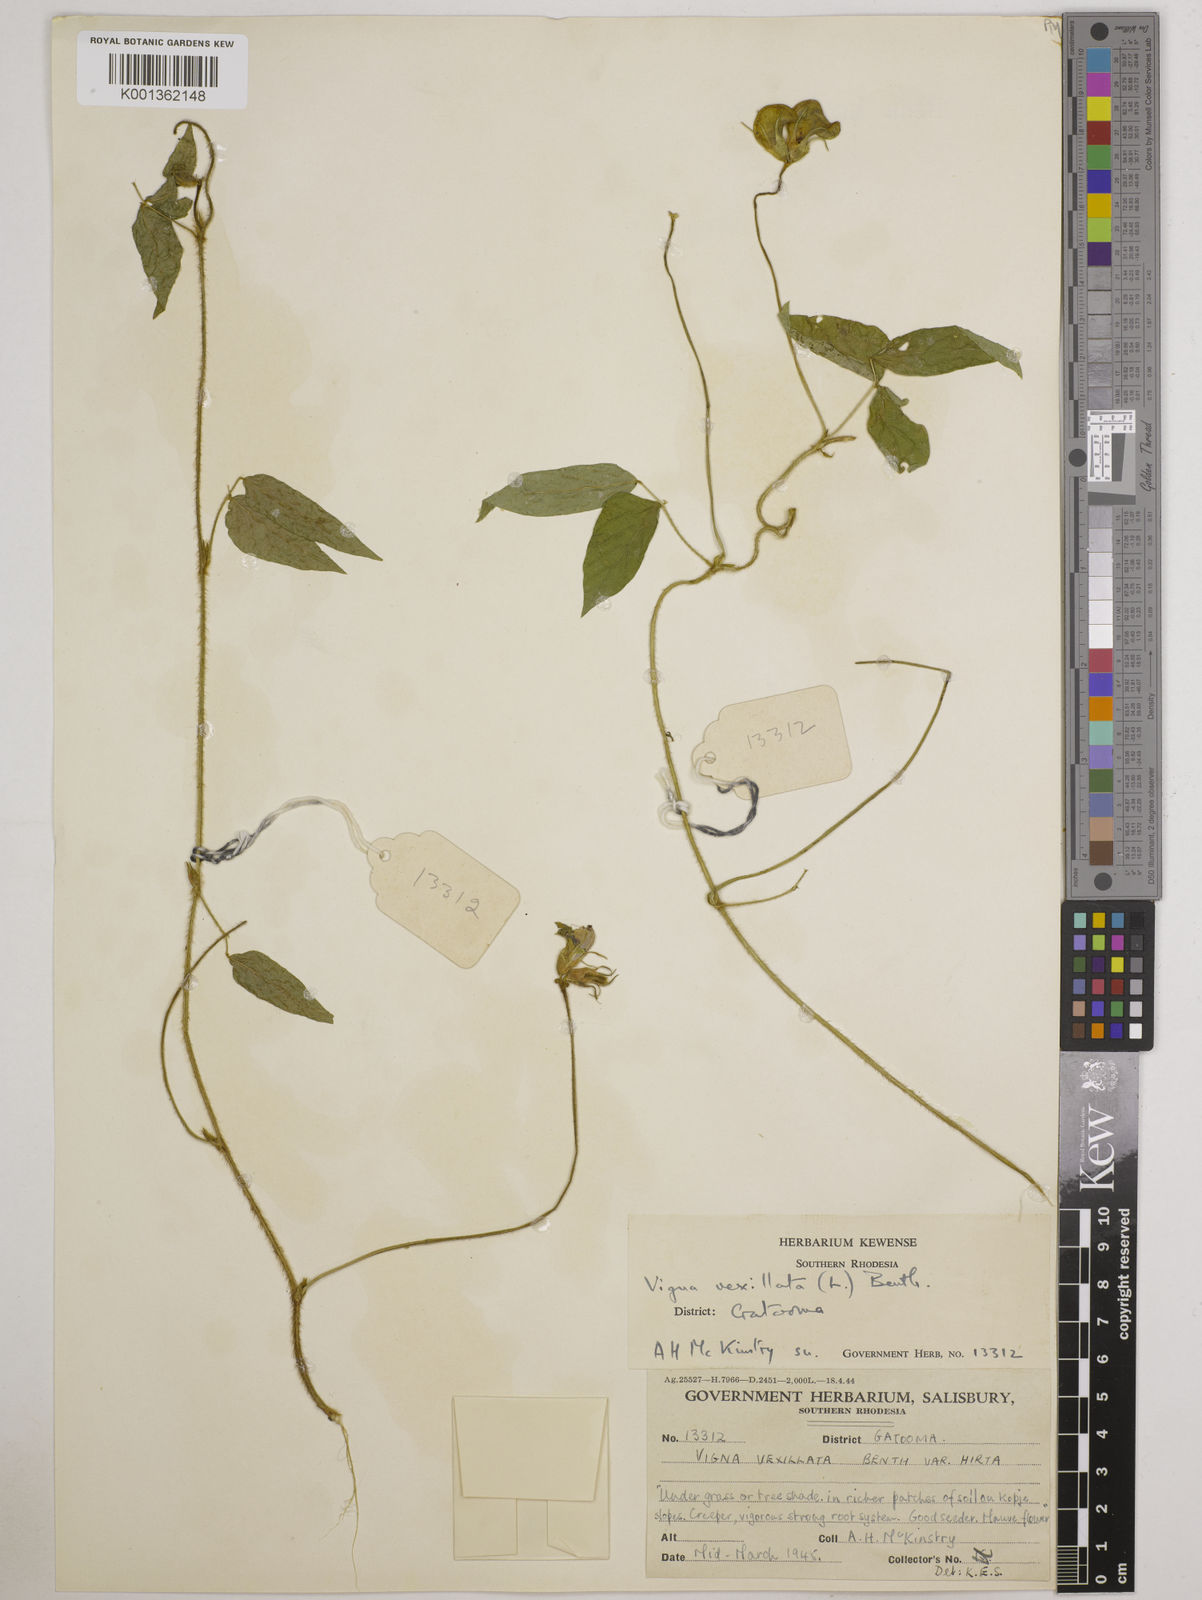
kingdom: Plantae
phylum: Tracheophyta
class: Magnoliopsida
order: Fabales
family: Fabaceae
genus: Vigna
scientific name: Vigna vexillata
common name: Zombi pea
